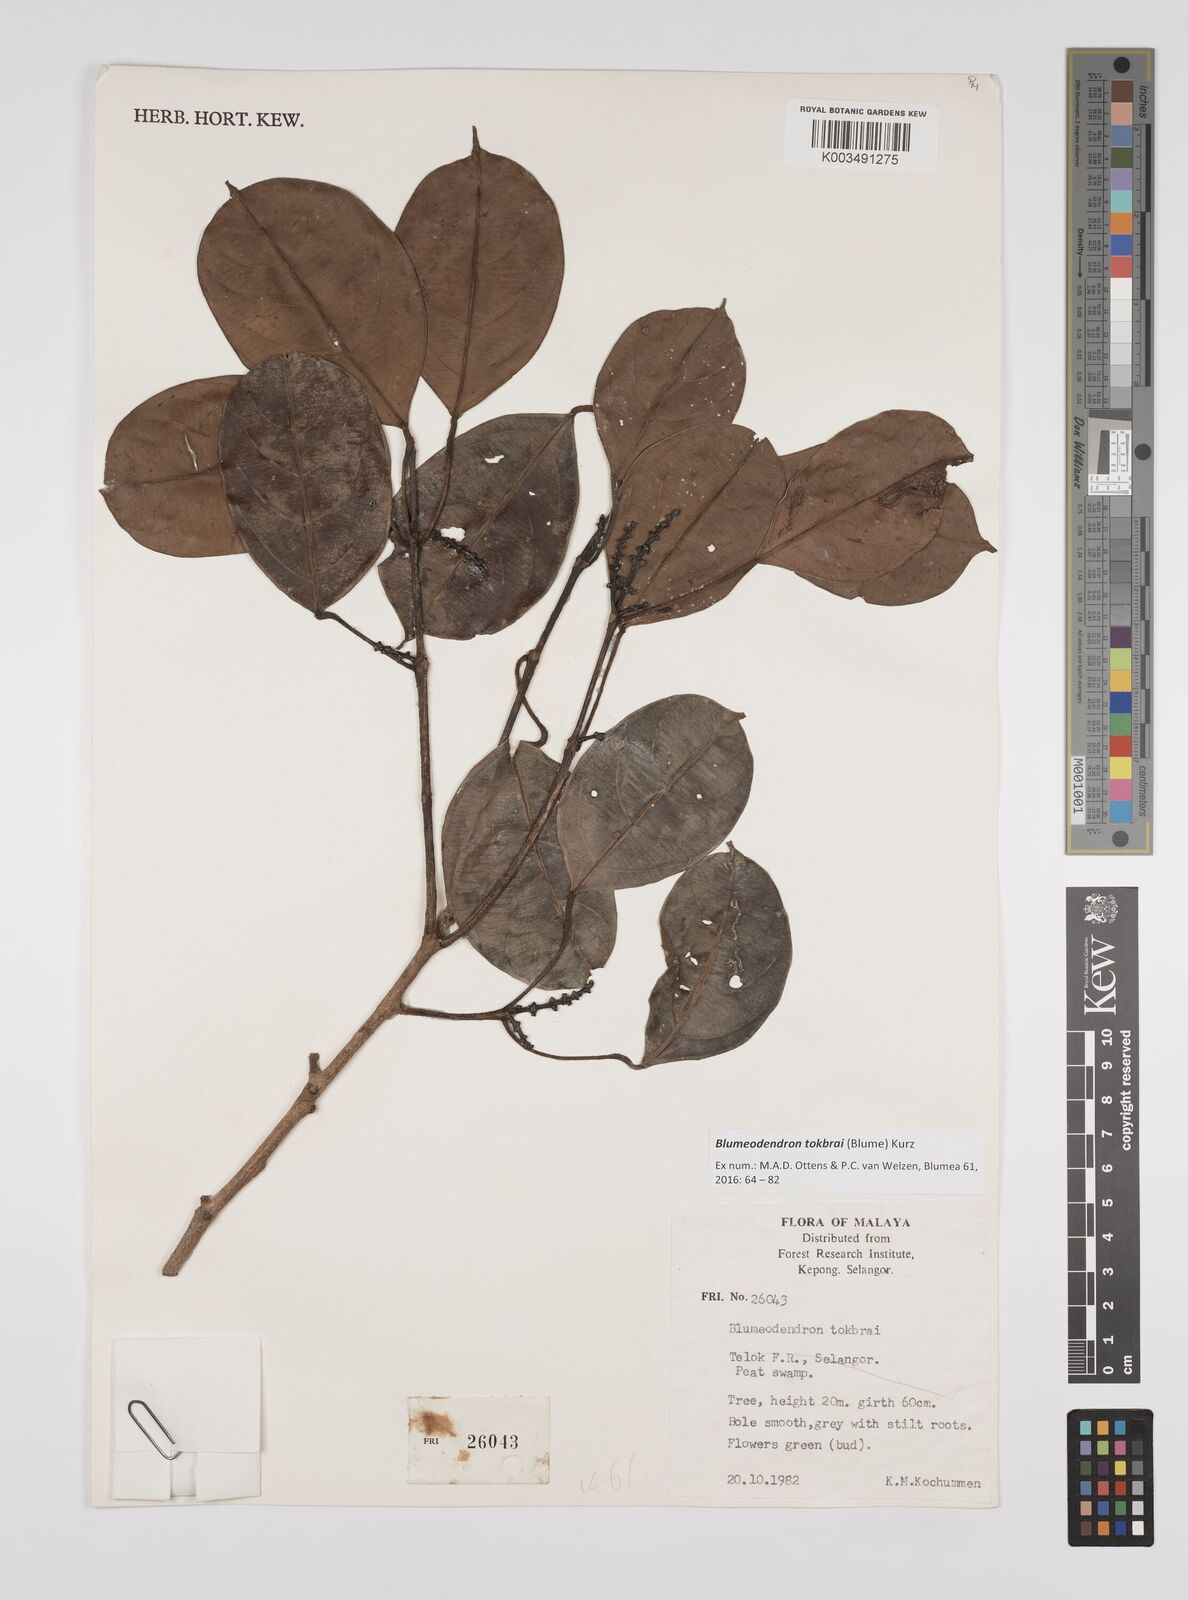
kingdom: Plantae
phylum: Tracheophyta
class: Magnoliopsida
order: Malpighiales
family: Euphorbiaceae
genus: Blumeodendron
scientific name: Blumeodendron tokbrai
